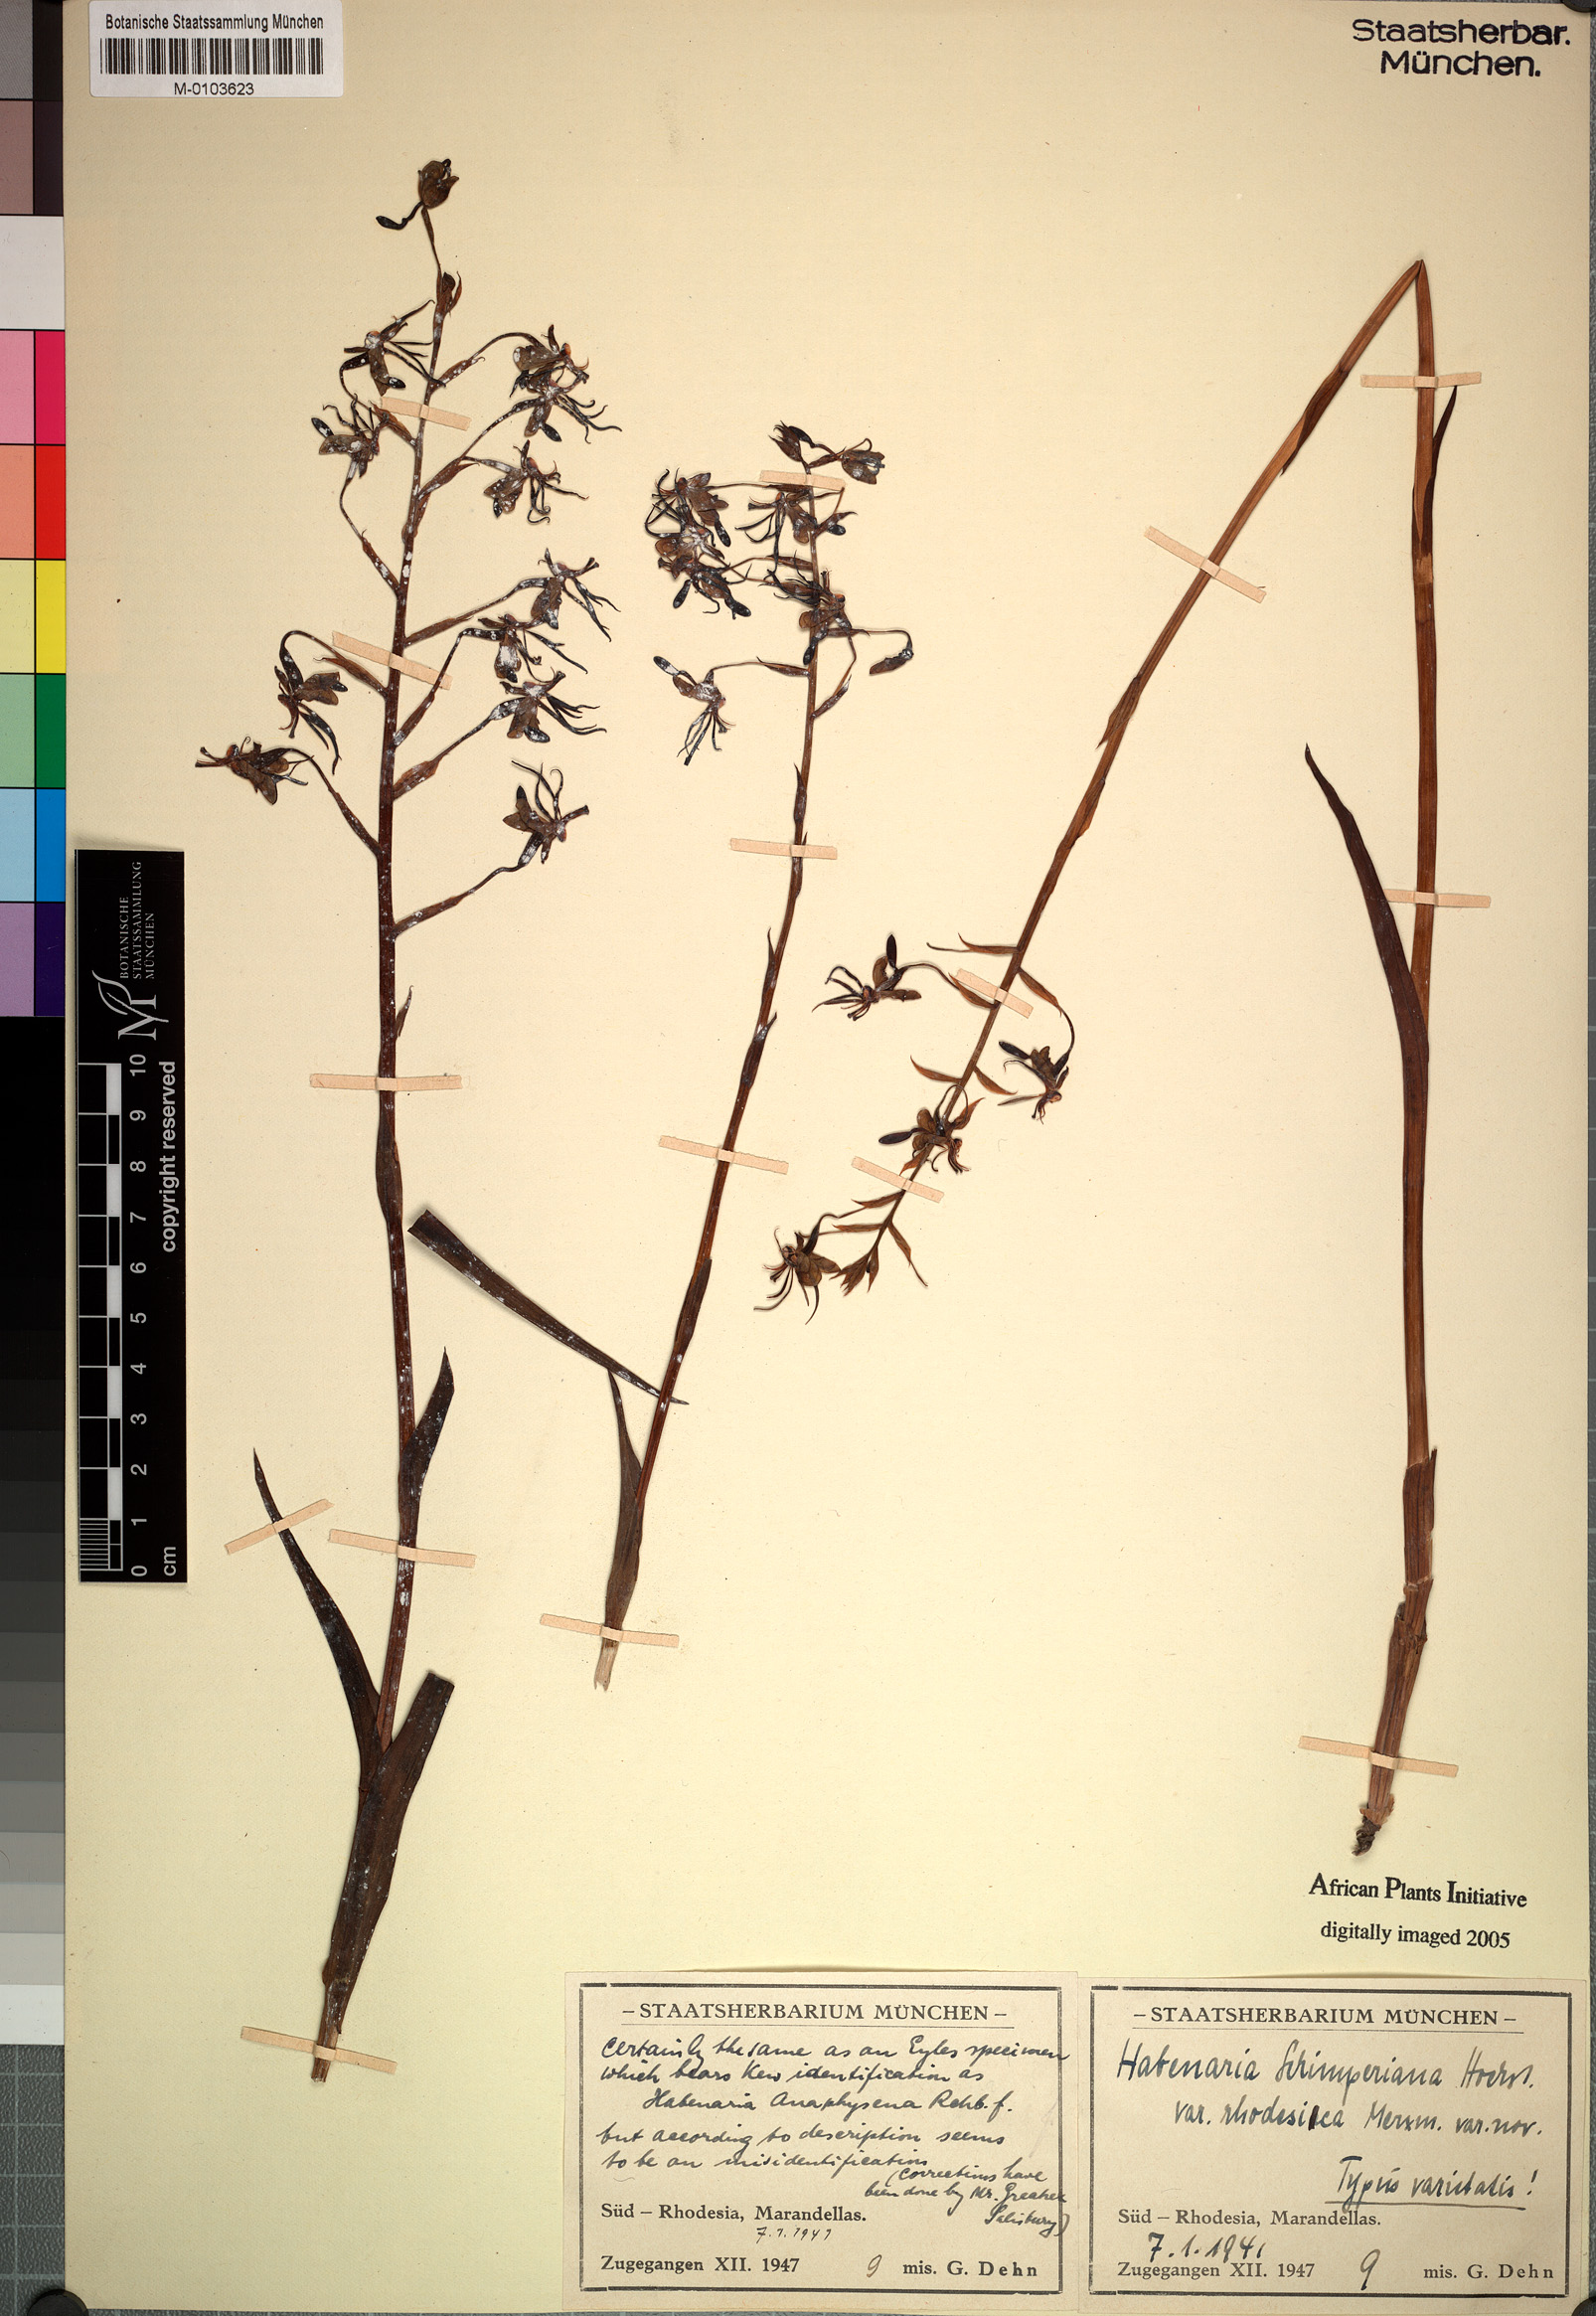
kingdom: Plantae
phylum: Tracheophyta
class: Liliopsida
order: Asparagales
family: Orchidaceae
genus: Habenaria
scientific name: Habenaria schimperiana
